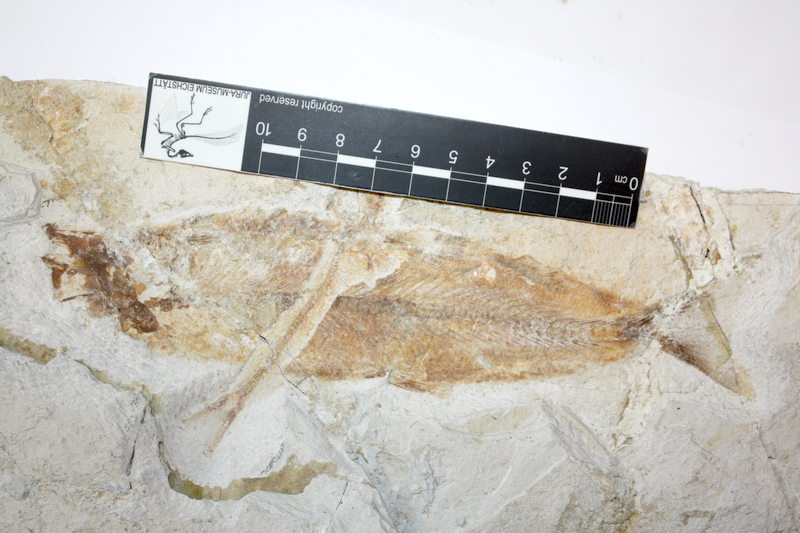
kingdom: Animalia
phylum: Chordata
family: Ascalaboidae
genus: Tharsis
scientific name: Tharsis dubius
